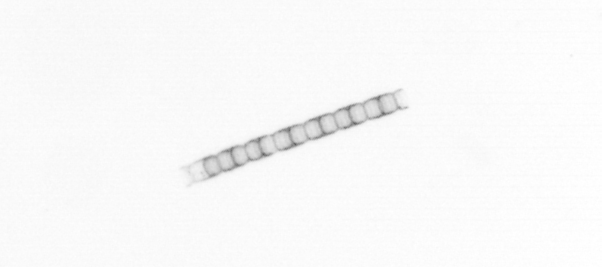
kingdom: Chromista
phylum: Ochrophyta
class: Bacillariophyceae
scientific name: Bacillariophyceae
